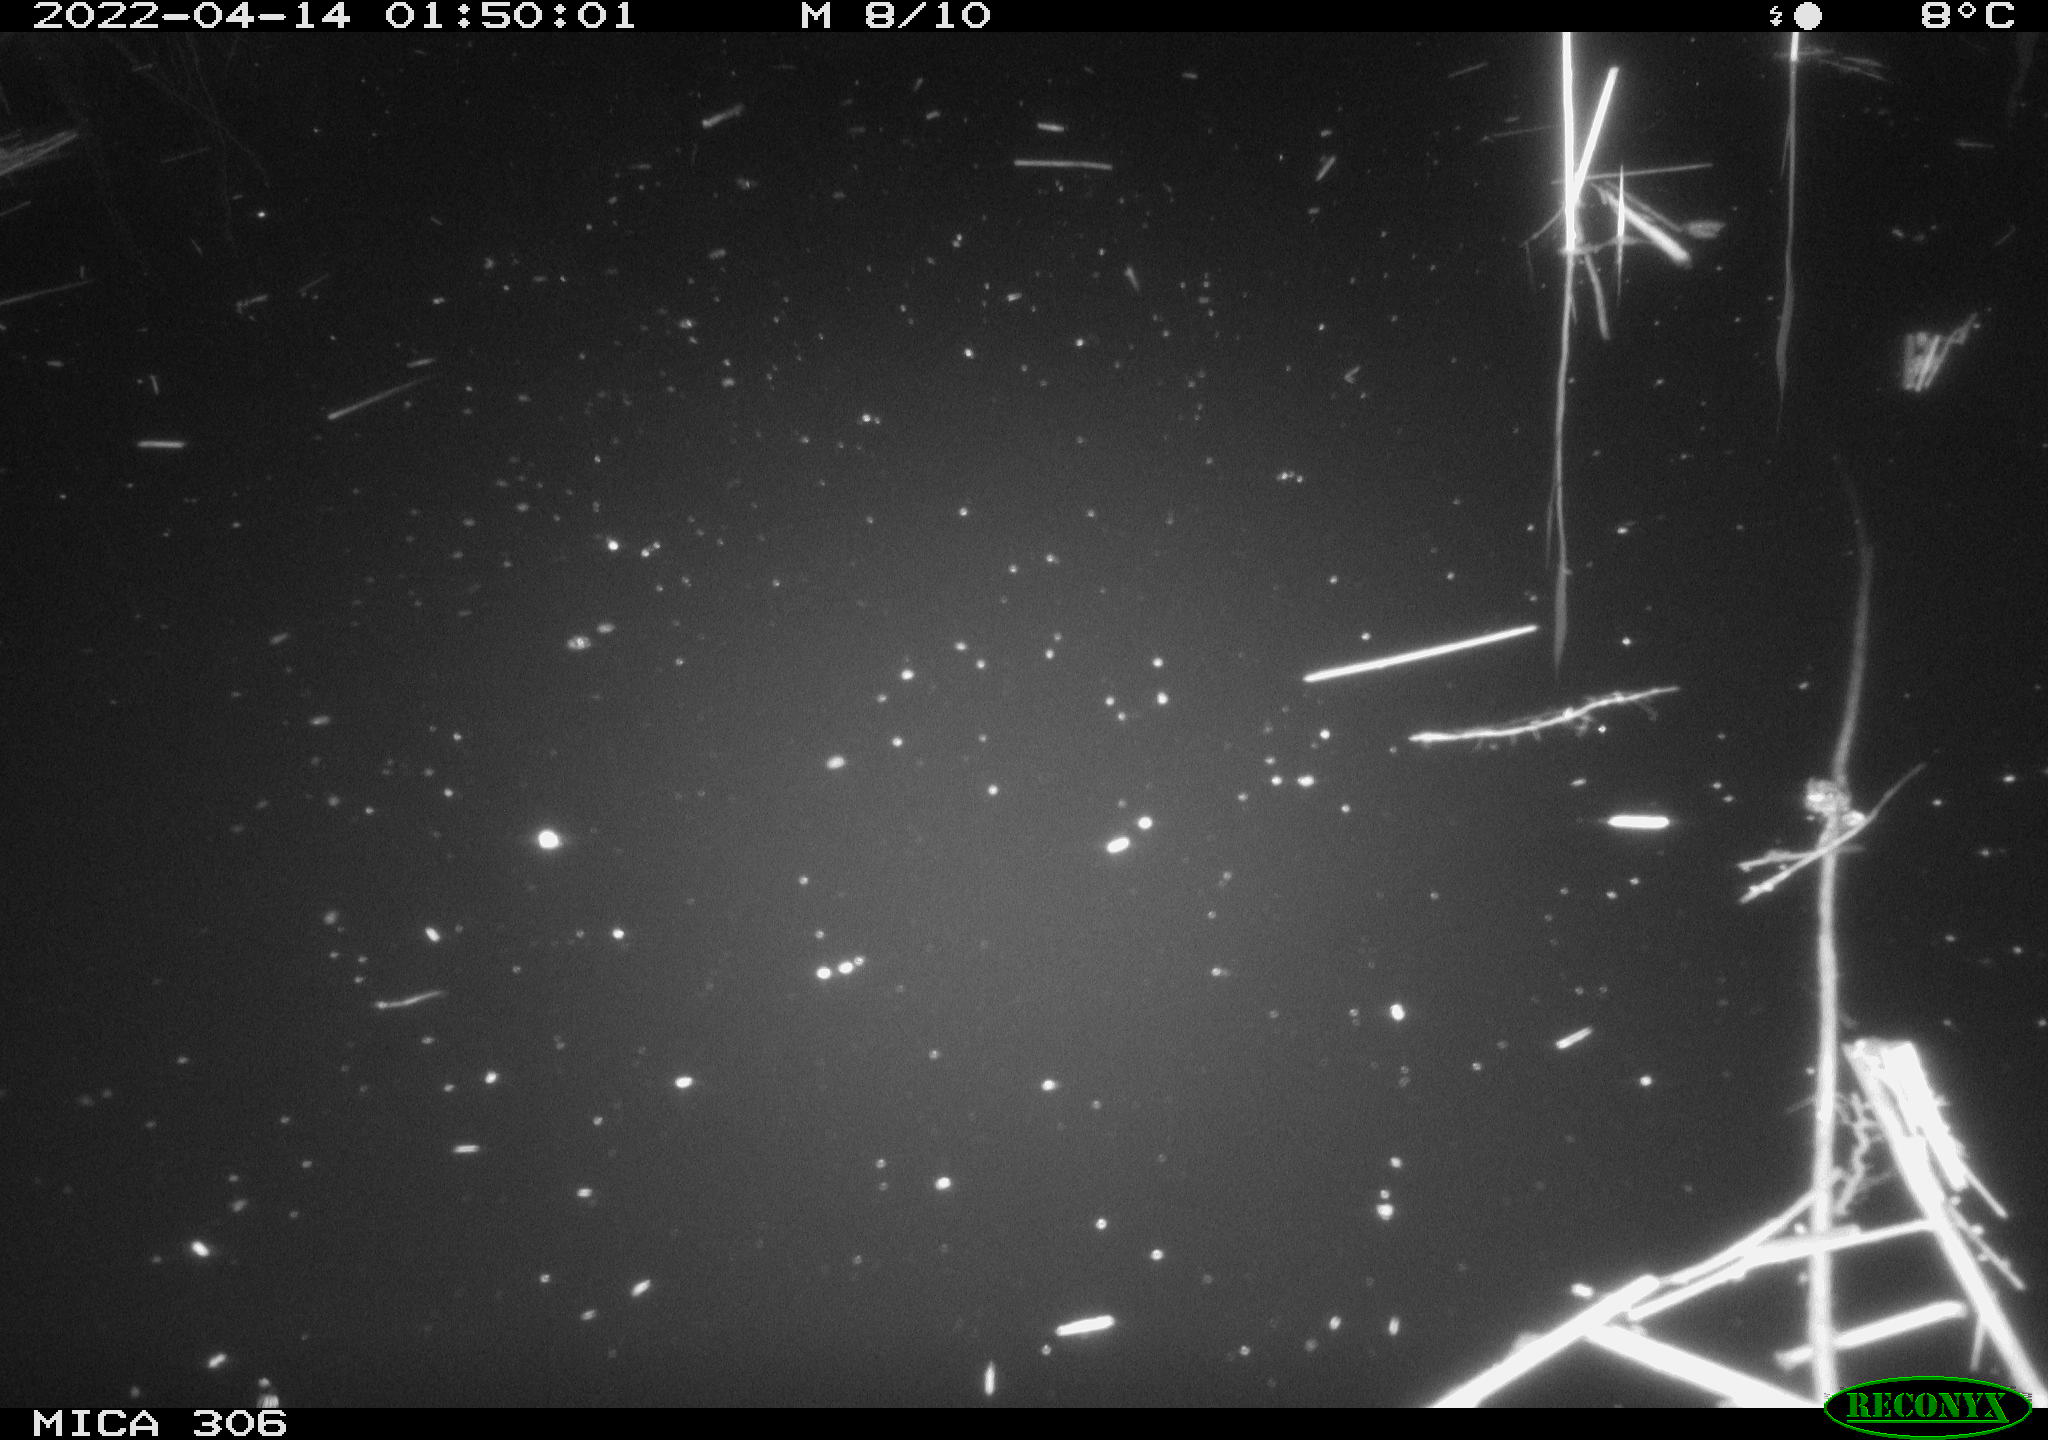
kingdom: Animalia
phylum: Chordata
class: Aves
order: Anseriformes
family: Anatidae
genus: Anas
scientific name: Anas platyrhynchos
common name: Mallard
